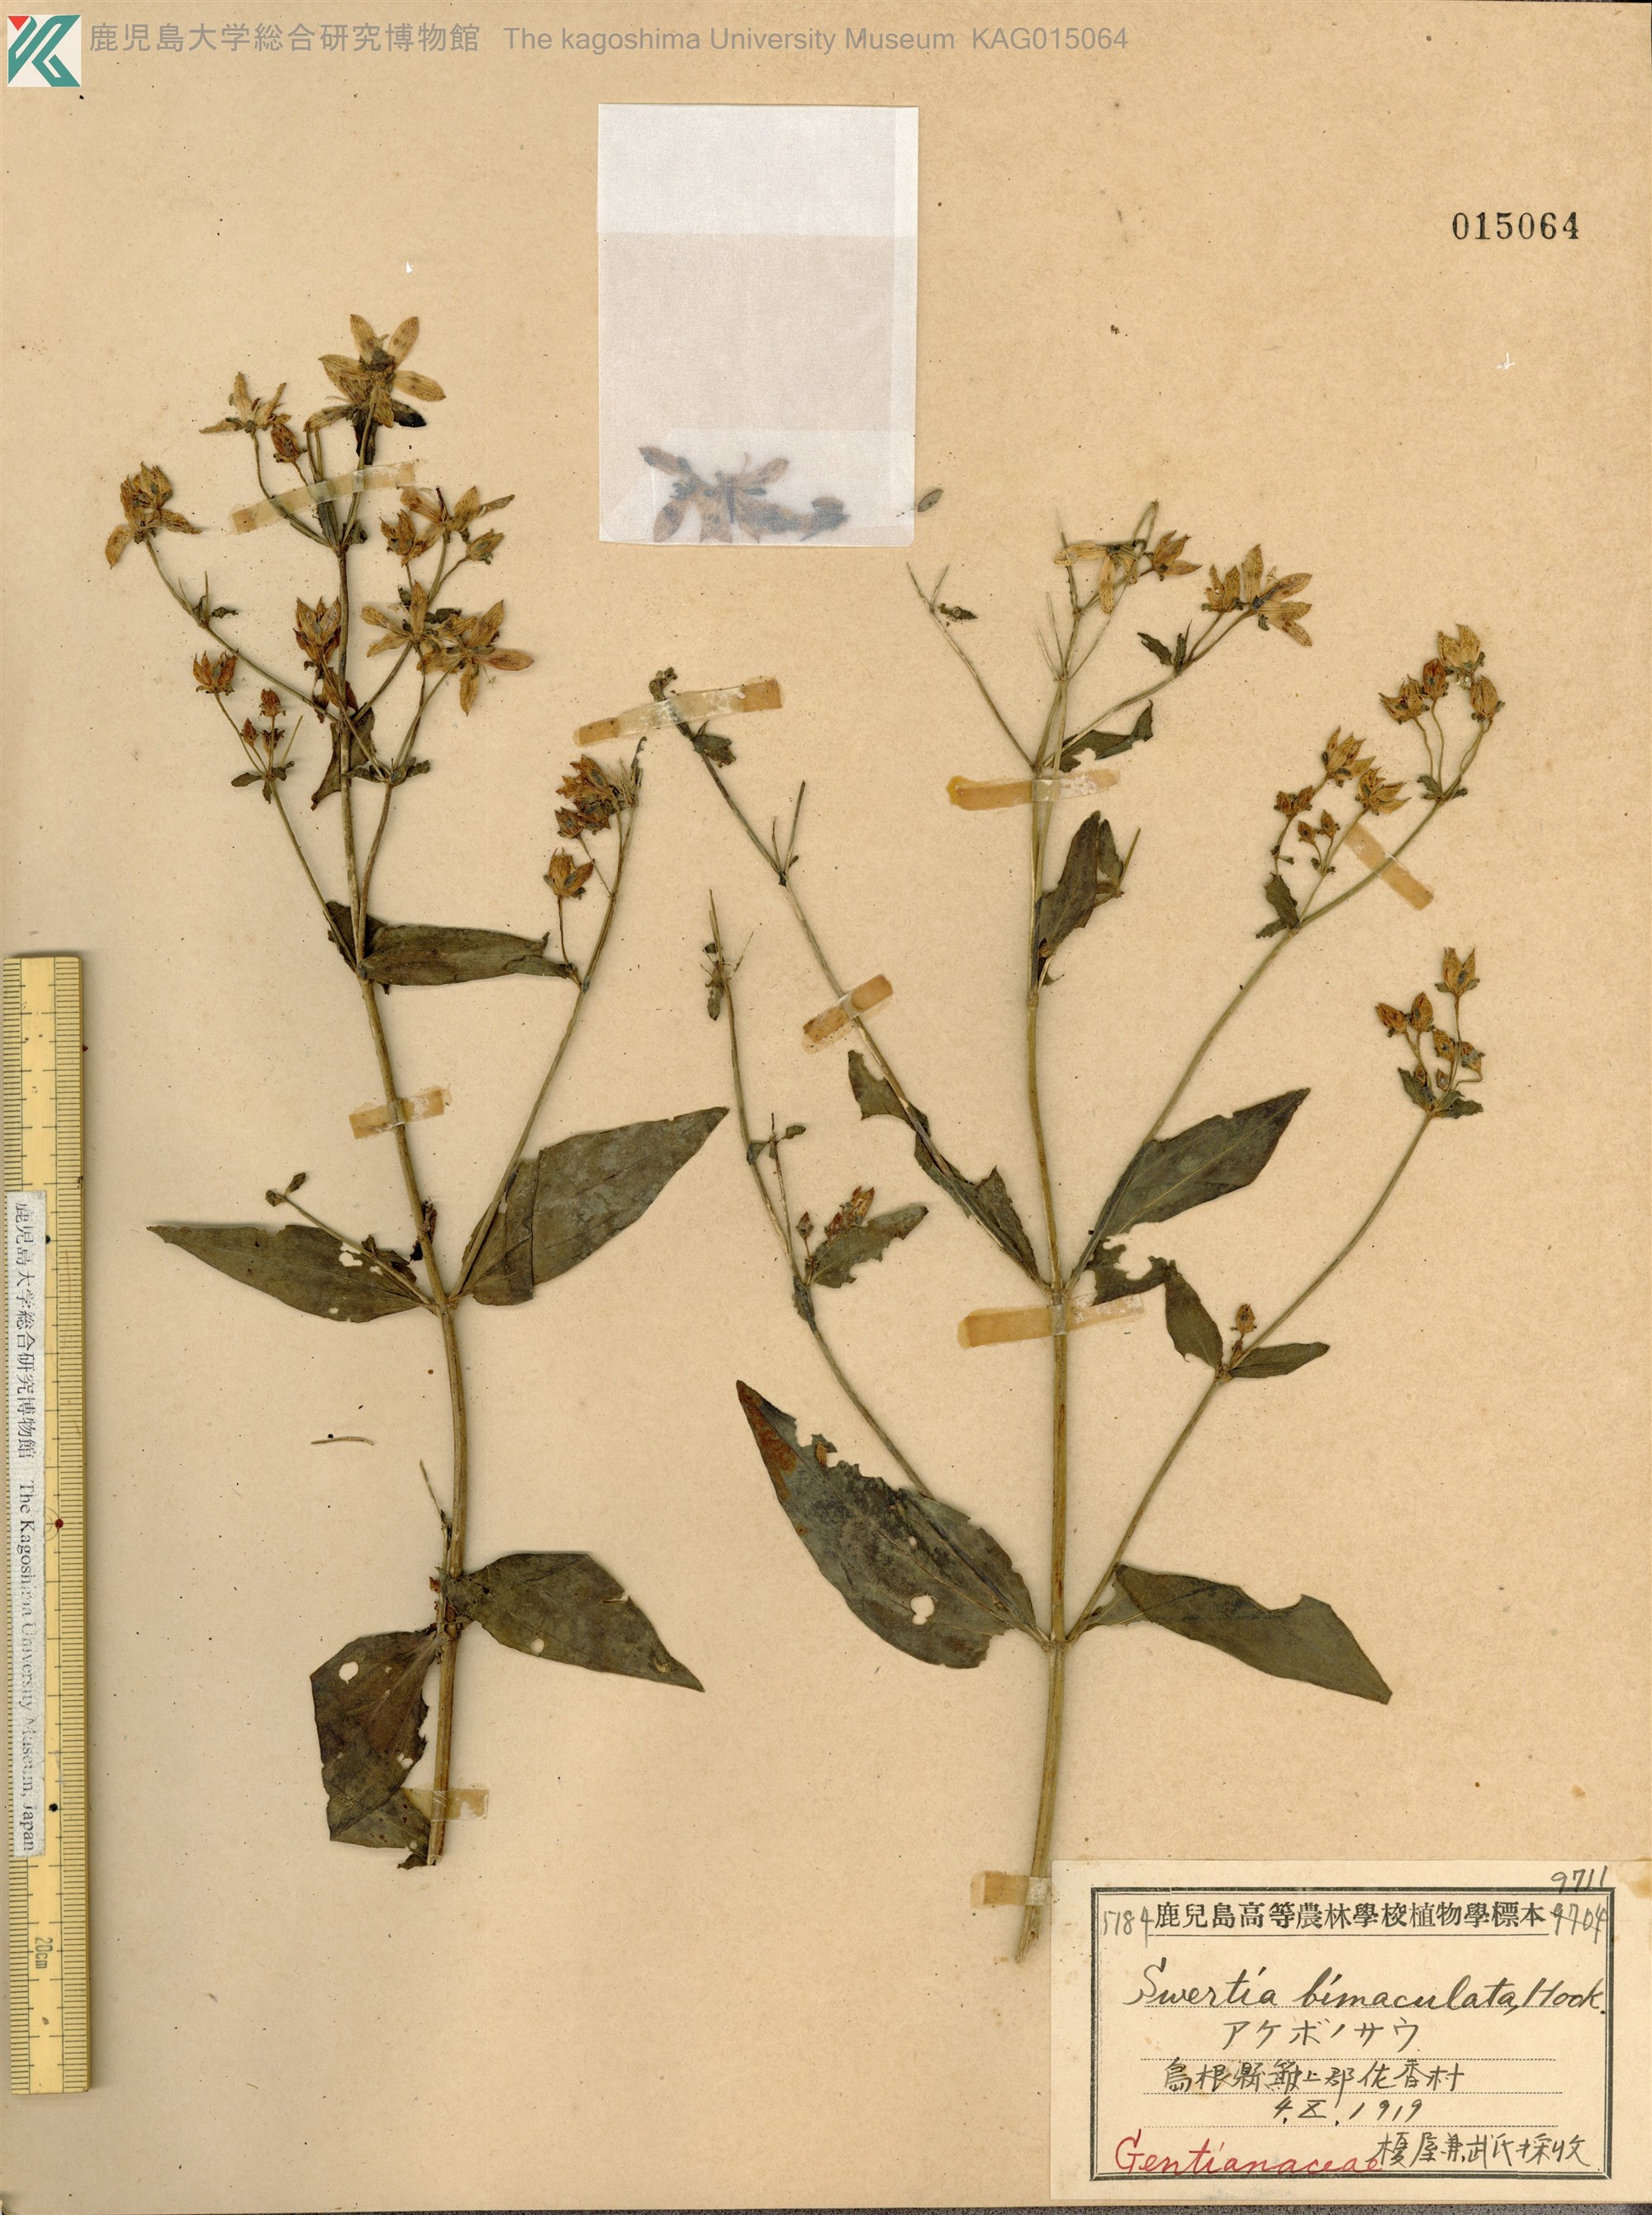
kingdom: Plantae
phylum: Tracheophyta
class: Magnoliopsida
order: Gentianales
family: Gentianaceae
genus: Swertia
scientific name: Swertia bimaculata
